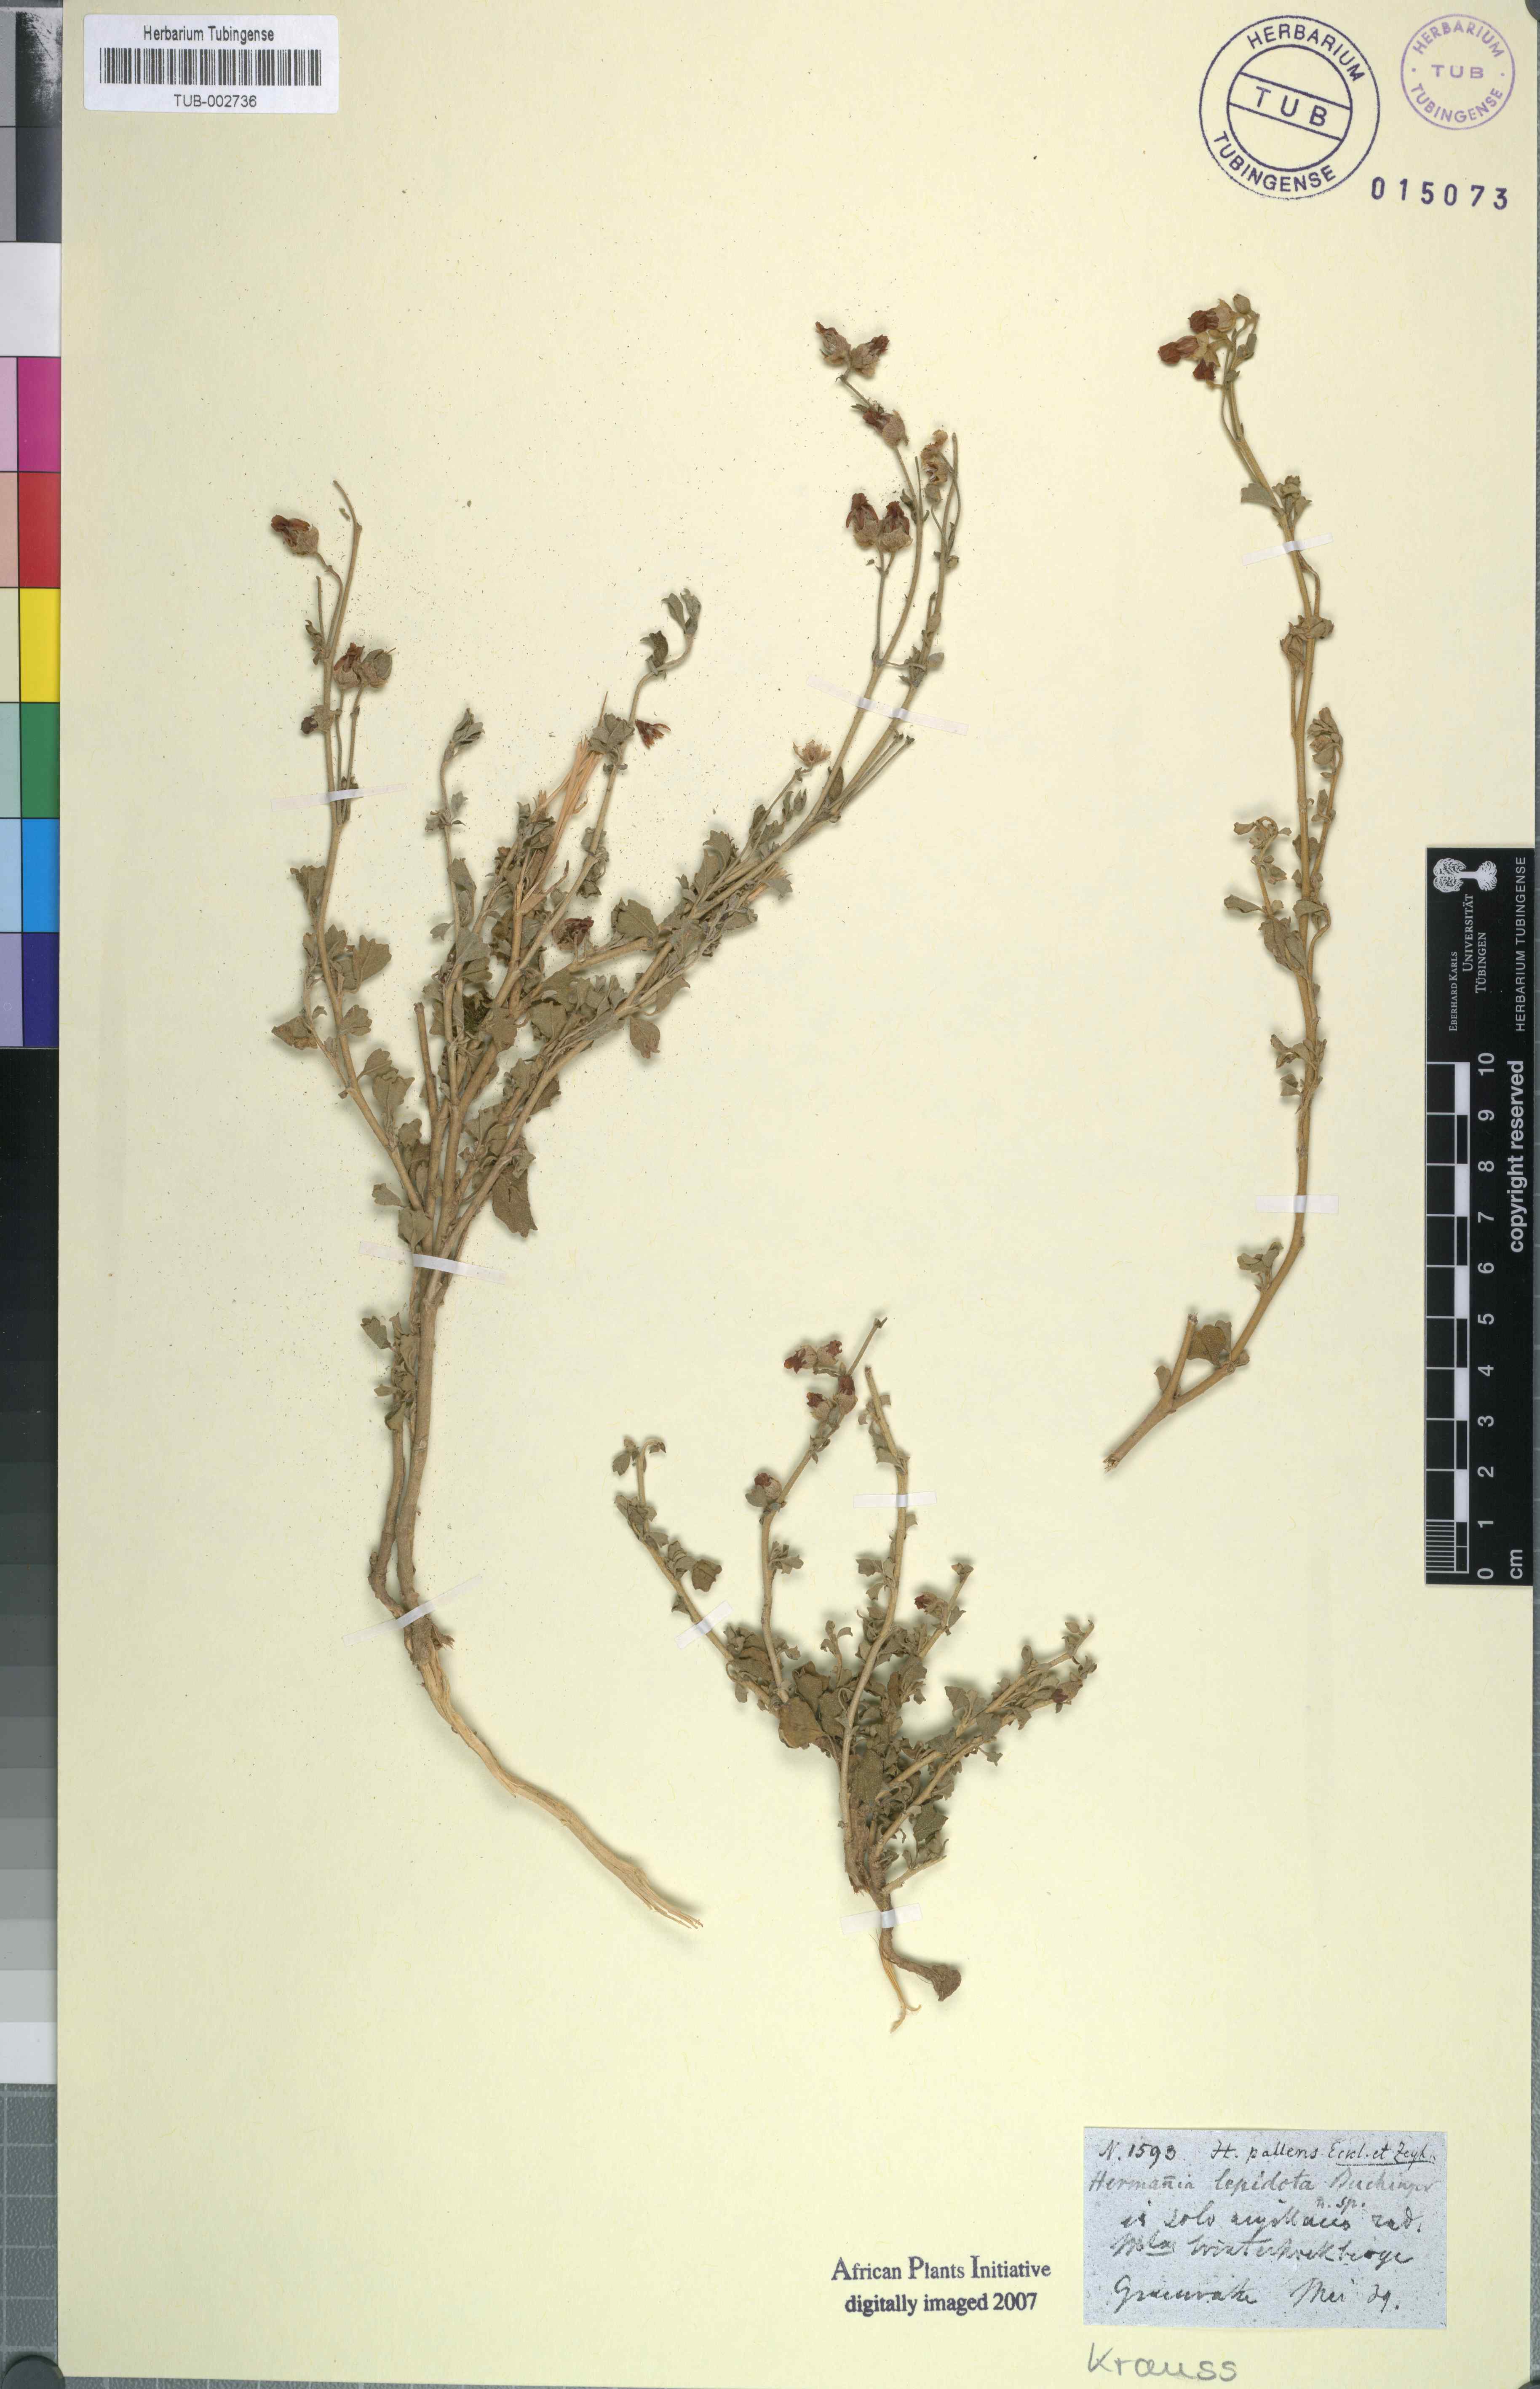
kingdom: Plantae
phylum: Tracheophyta
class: Magnoliopsida
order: Malvales
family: Malvaceae
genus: Hermannia
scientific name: Hermannia cuneifolia
